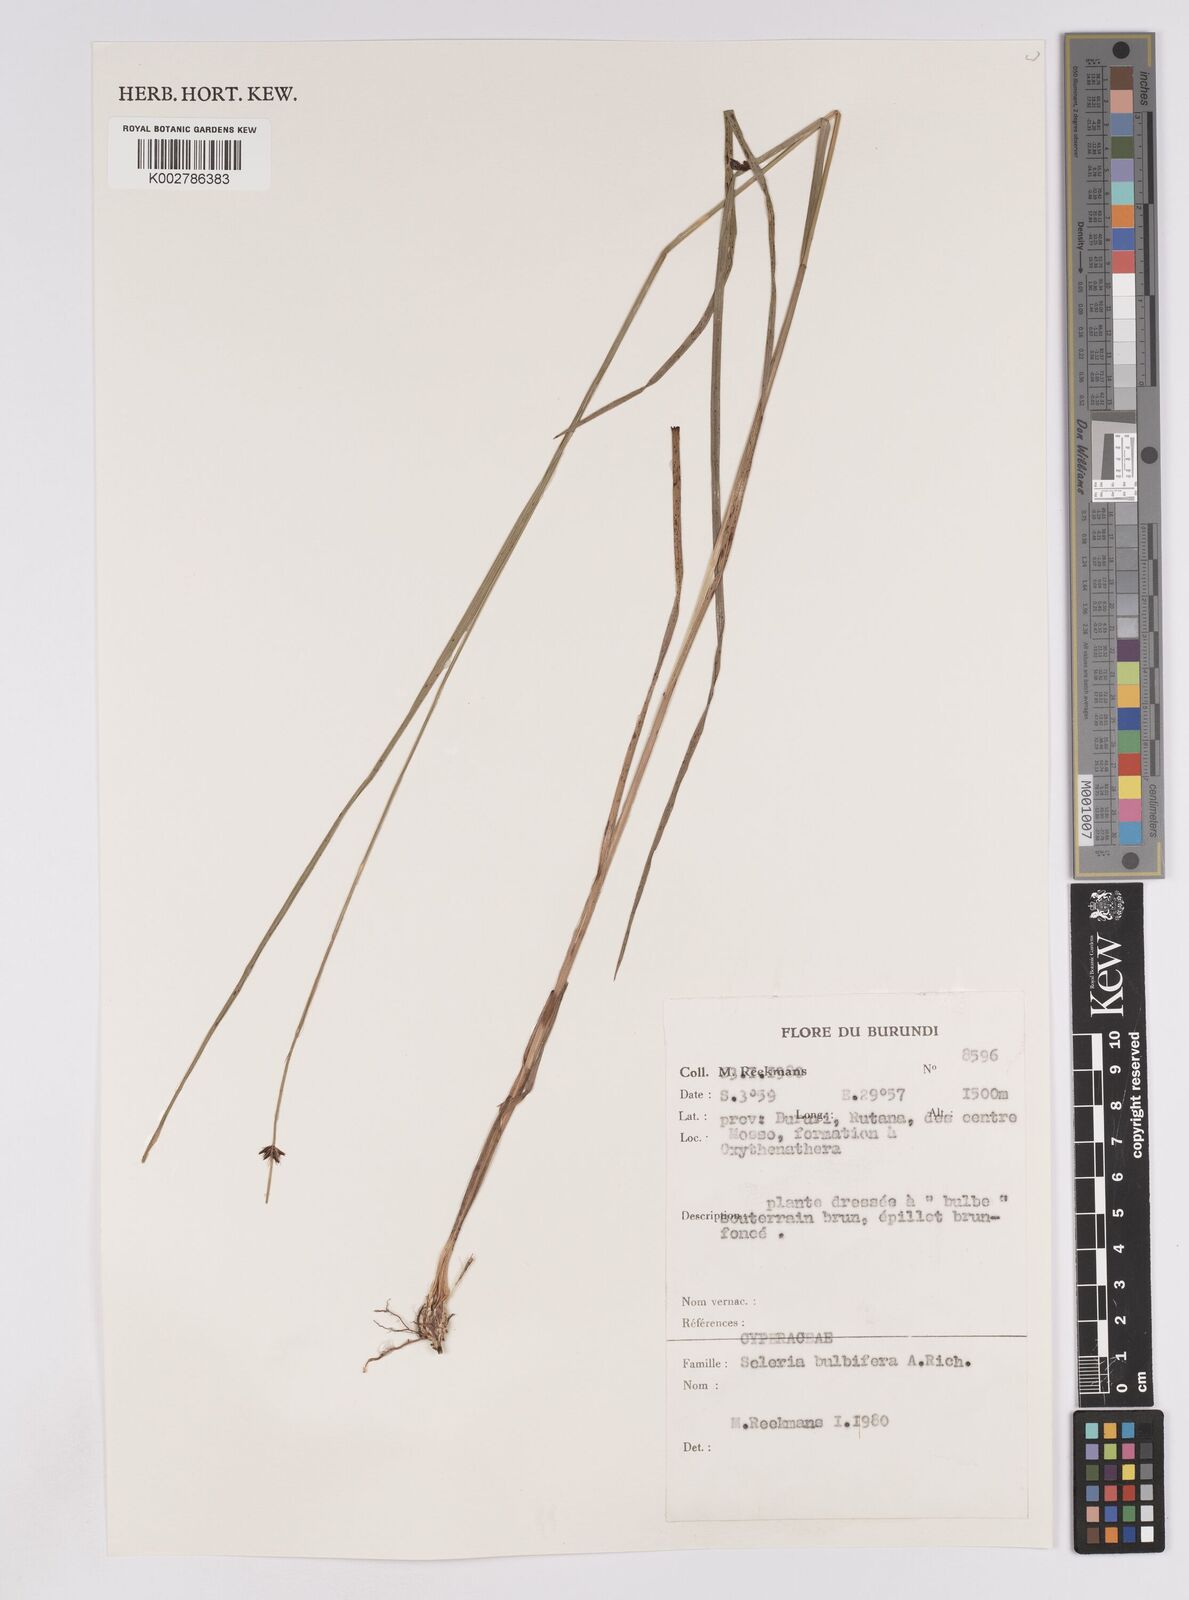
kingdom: Plantae
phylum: Tracheophyta
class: Liliopsida
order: Poales
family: Cyperaceae
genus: Scleria
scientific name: Scleria bulbifera
